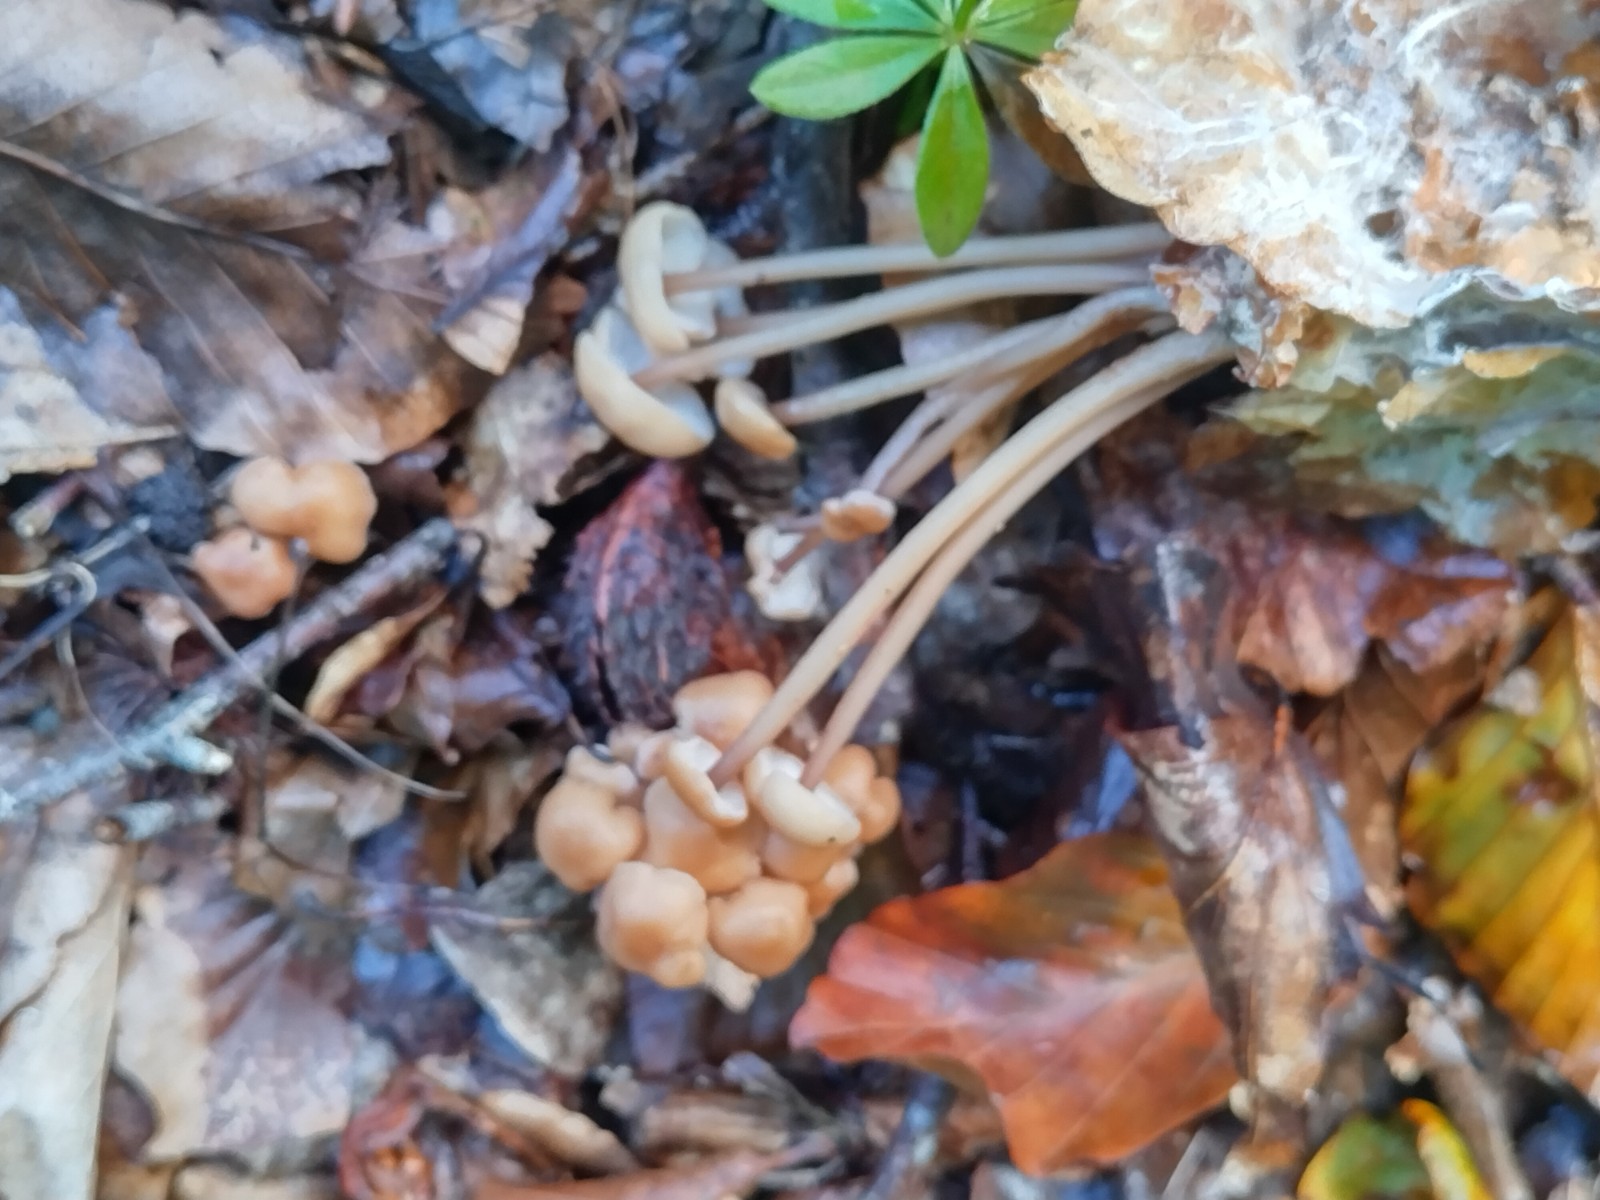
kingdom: Fungi
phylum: Basidiomycota
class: Agaricomycetes
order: Agaricales
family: Omphalotaceae
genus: Collybiopsis
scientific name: Collybiopsis confluens
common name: knippe-fladhat
